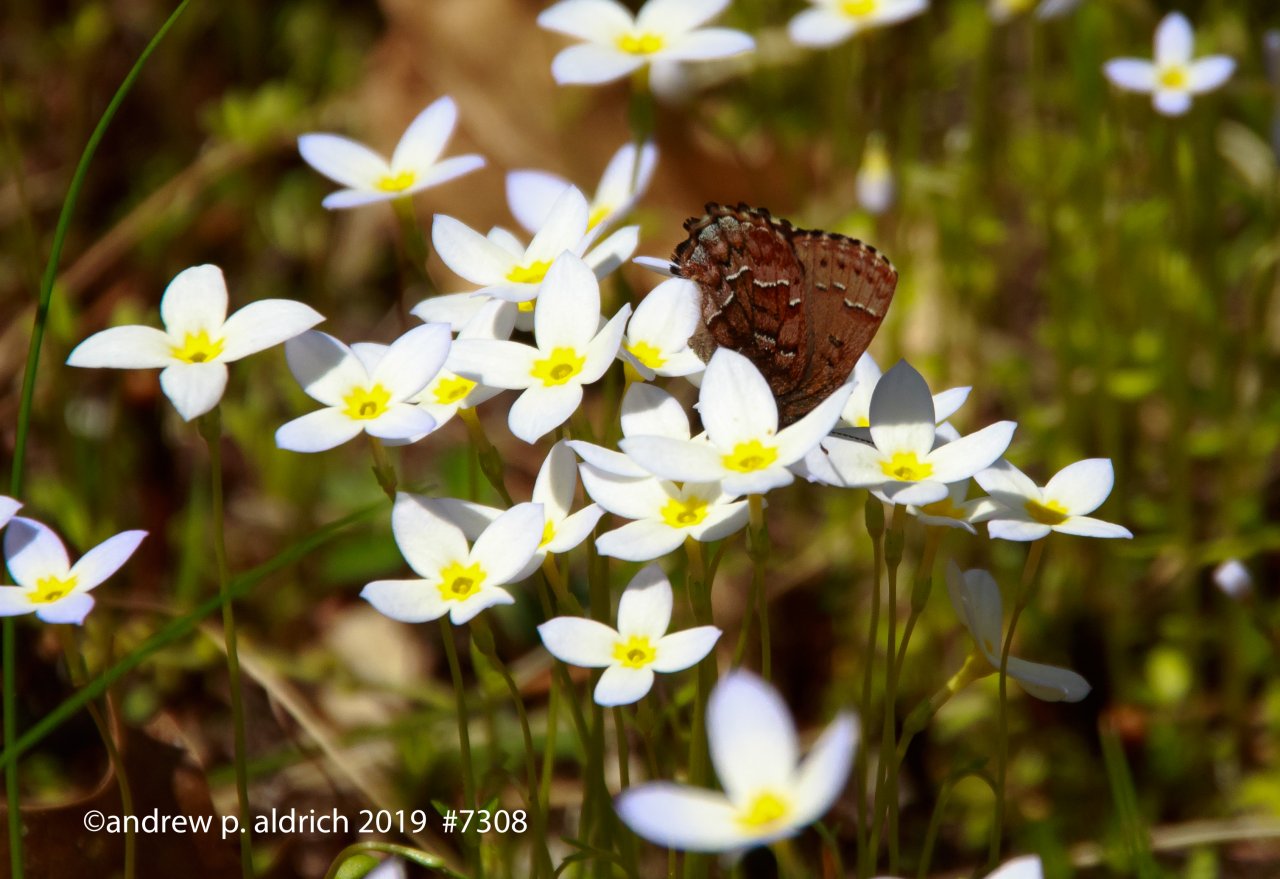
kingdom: Animalia
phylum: Arthropoda
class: Insecta
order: Lepidoptera
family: Lycaenidae
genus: Incisalia
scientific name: Incisalia niphon
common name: Eastern Pine Elfin
